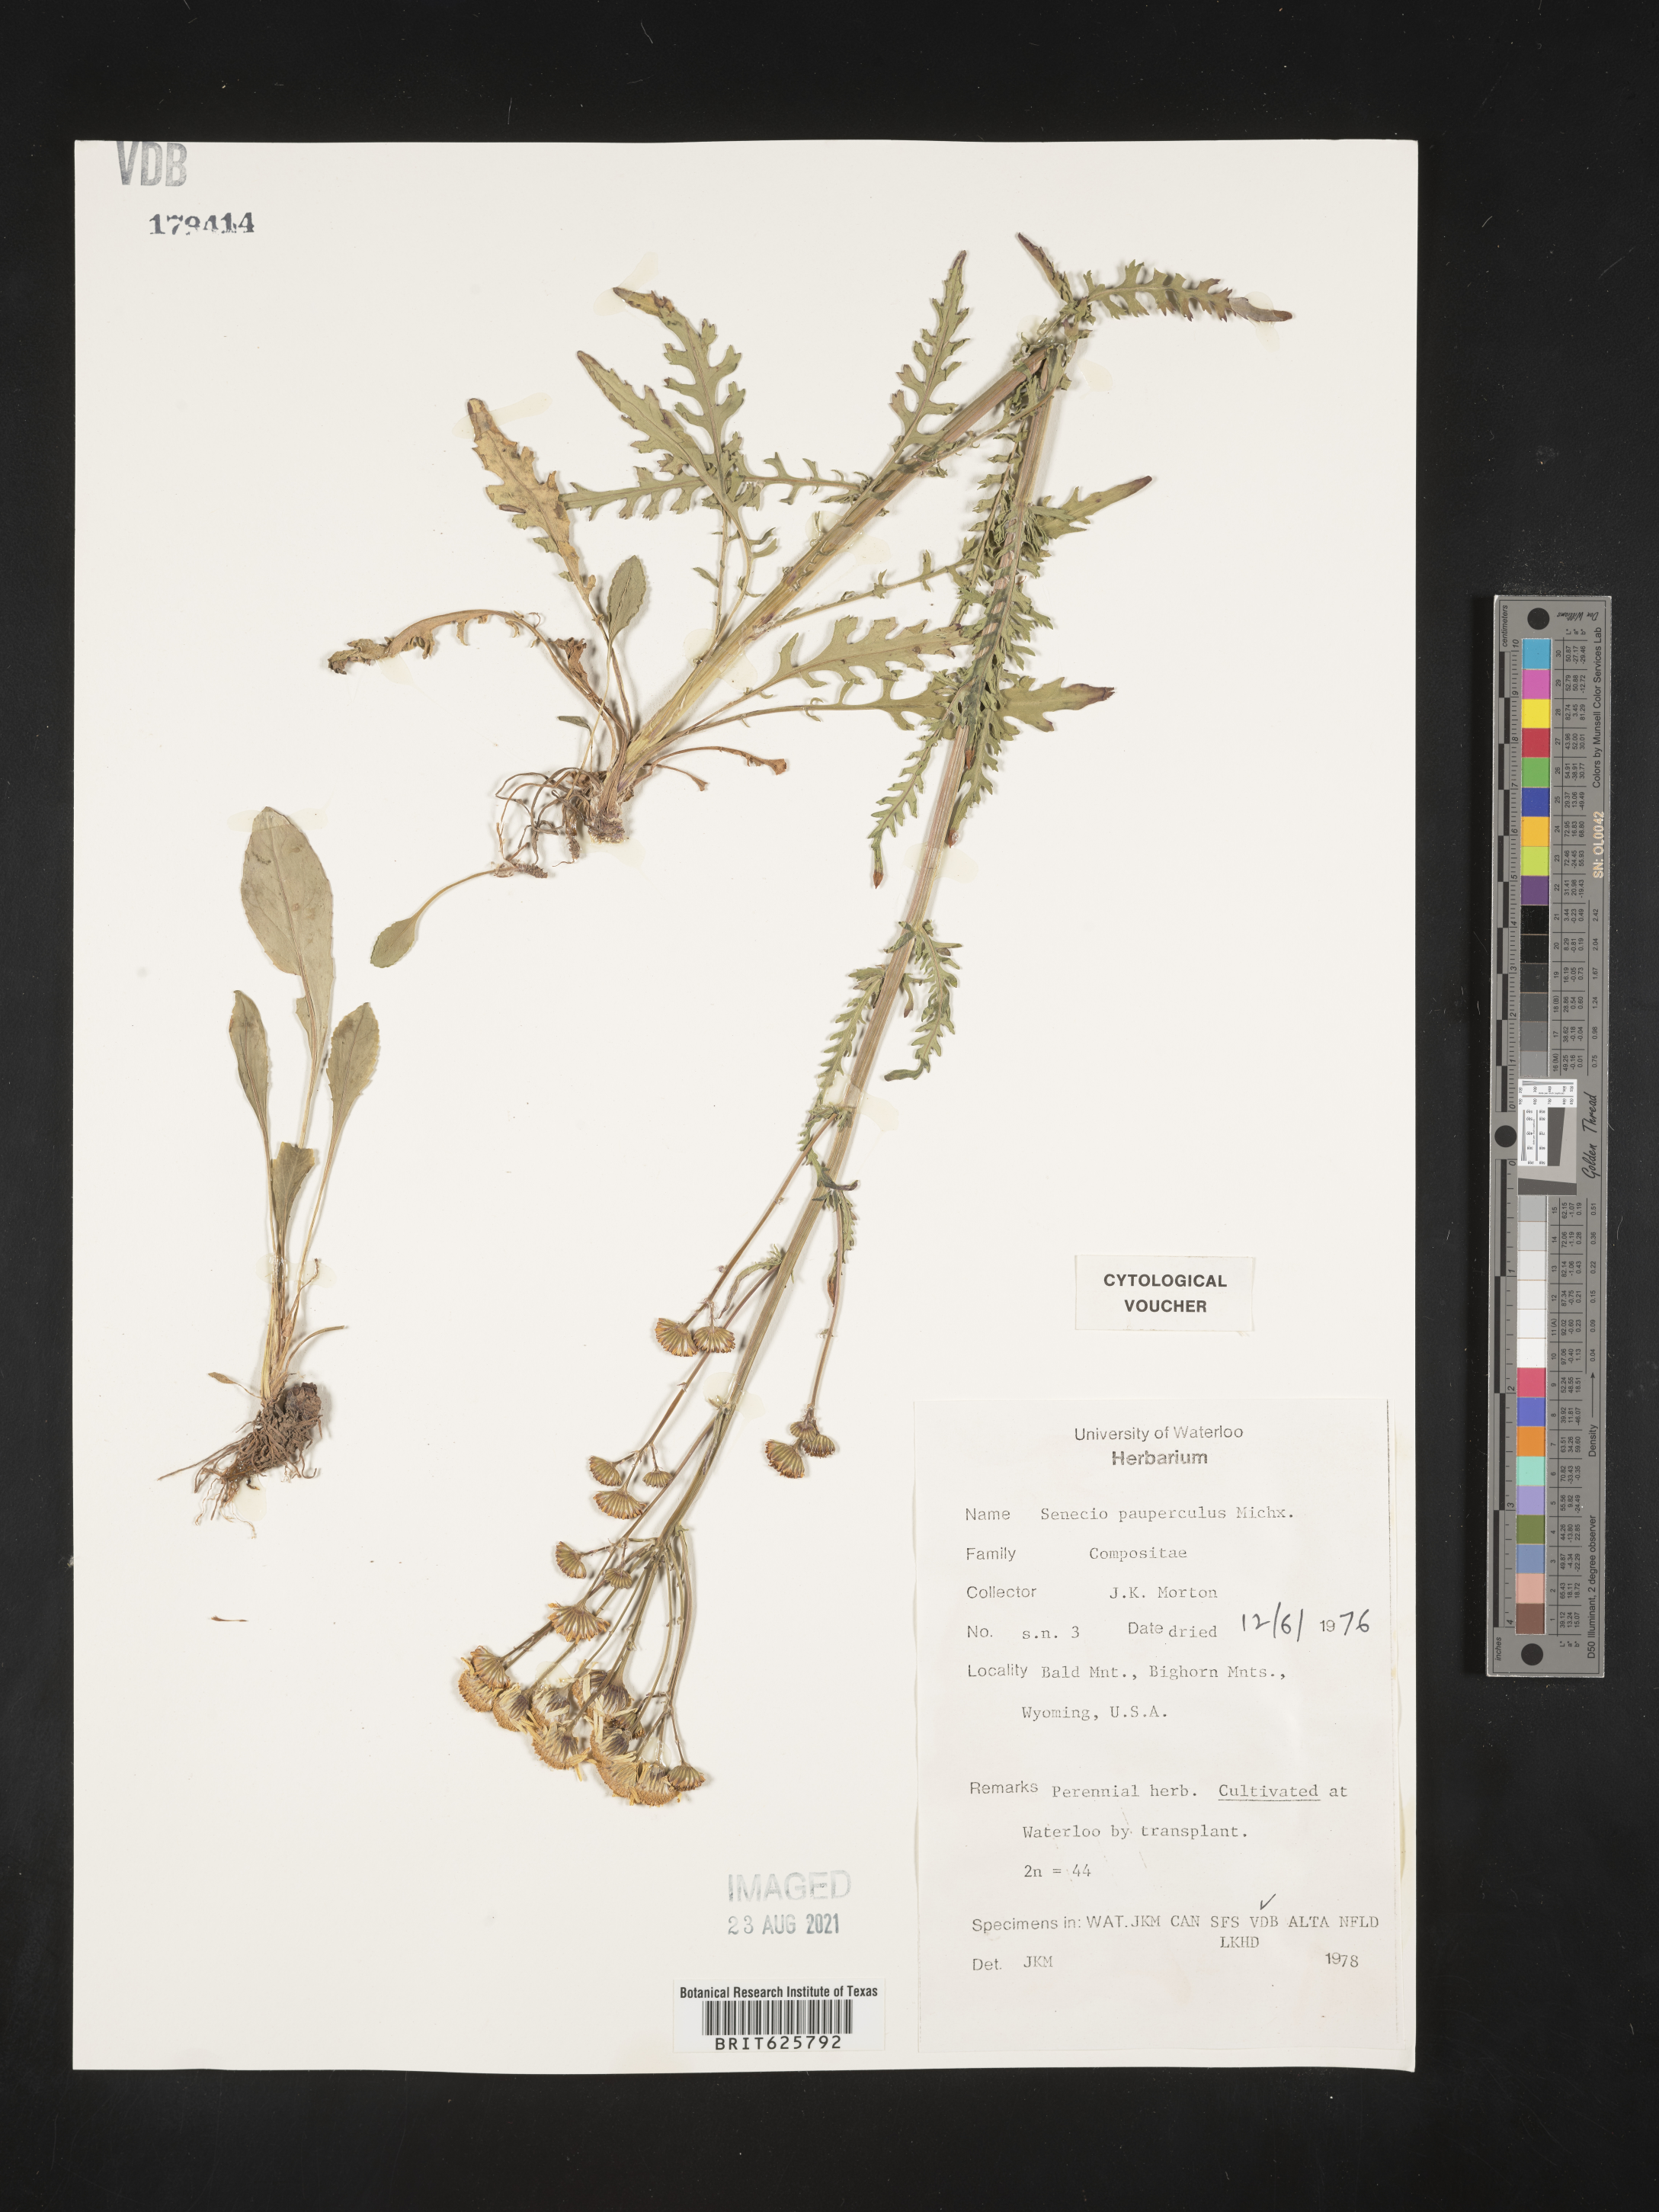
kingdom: Plantae
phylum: Tracheophyta
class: Magnoliopsida
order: Asterales
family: Asteraceae
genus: Packera
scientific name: Packera paupercula
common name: Balsam groundsel
